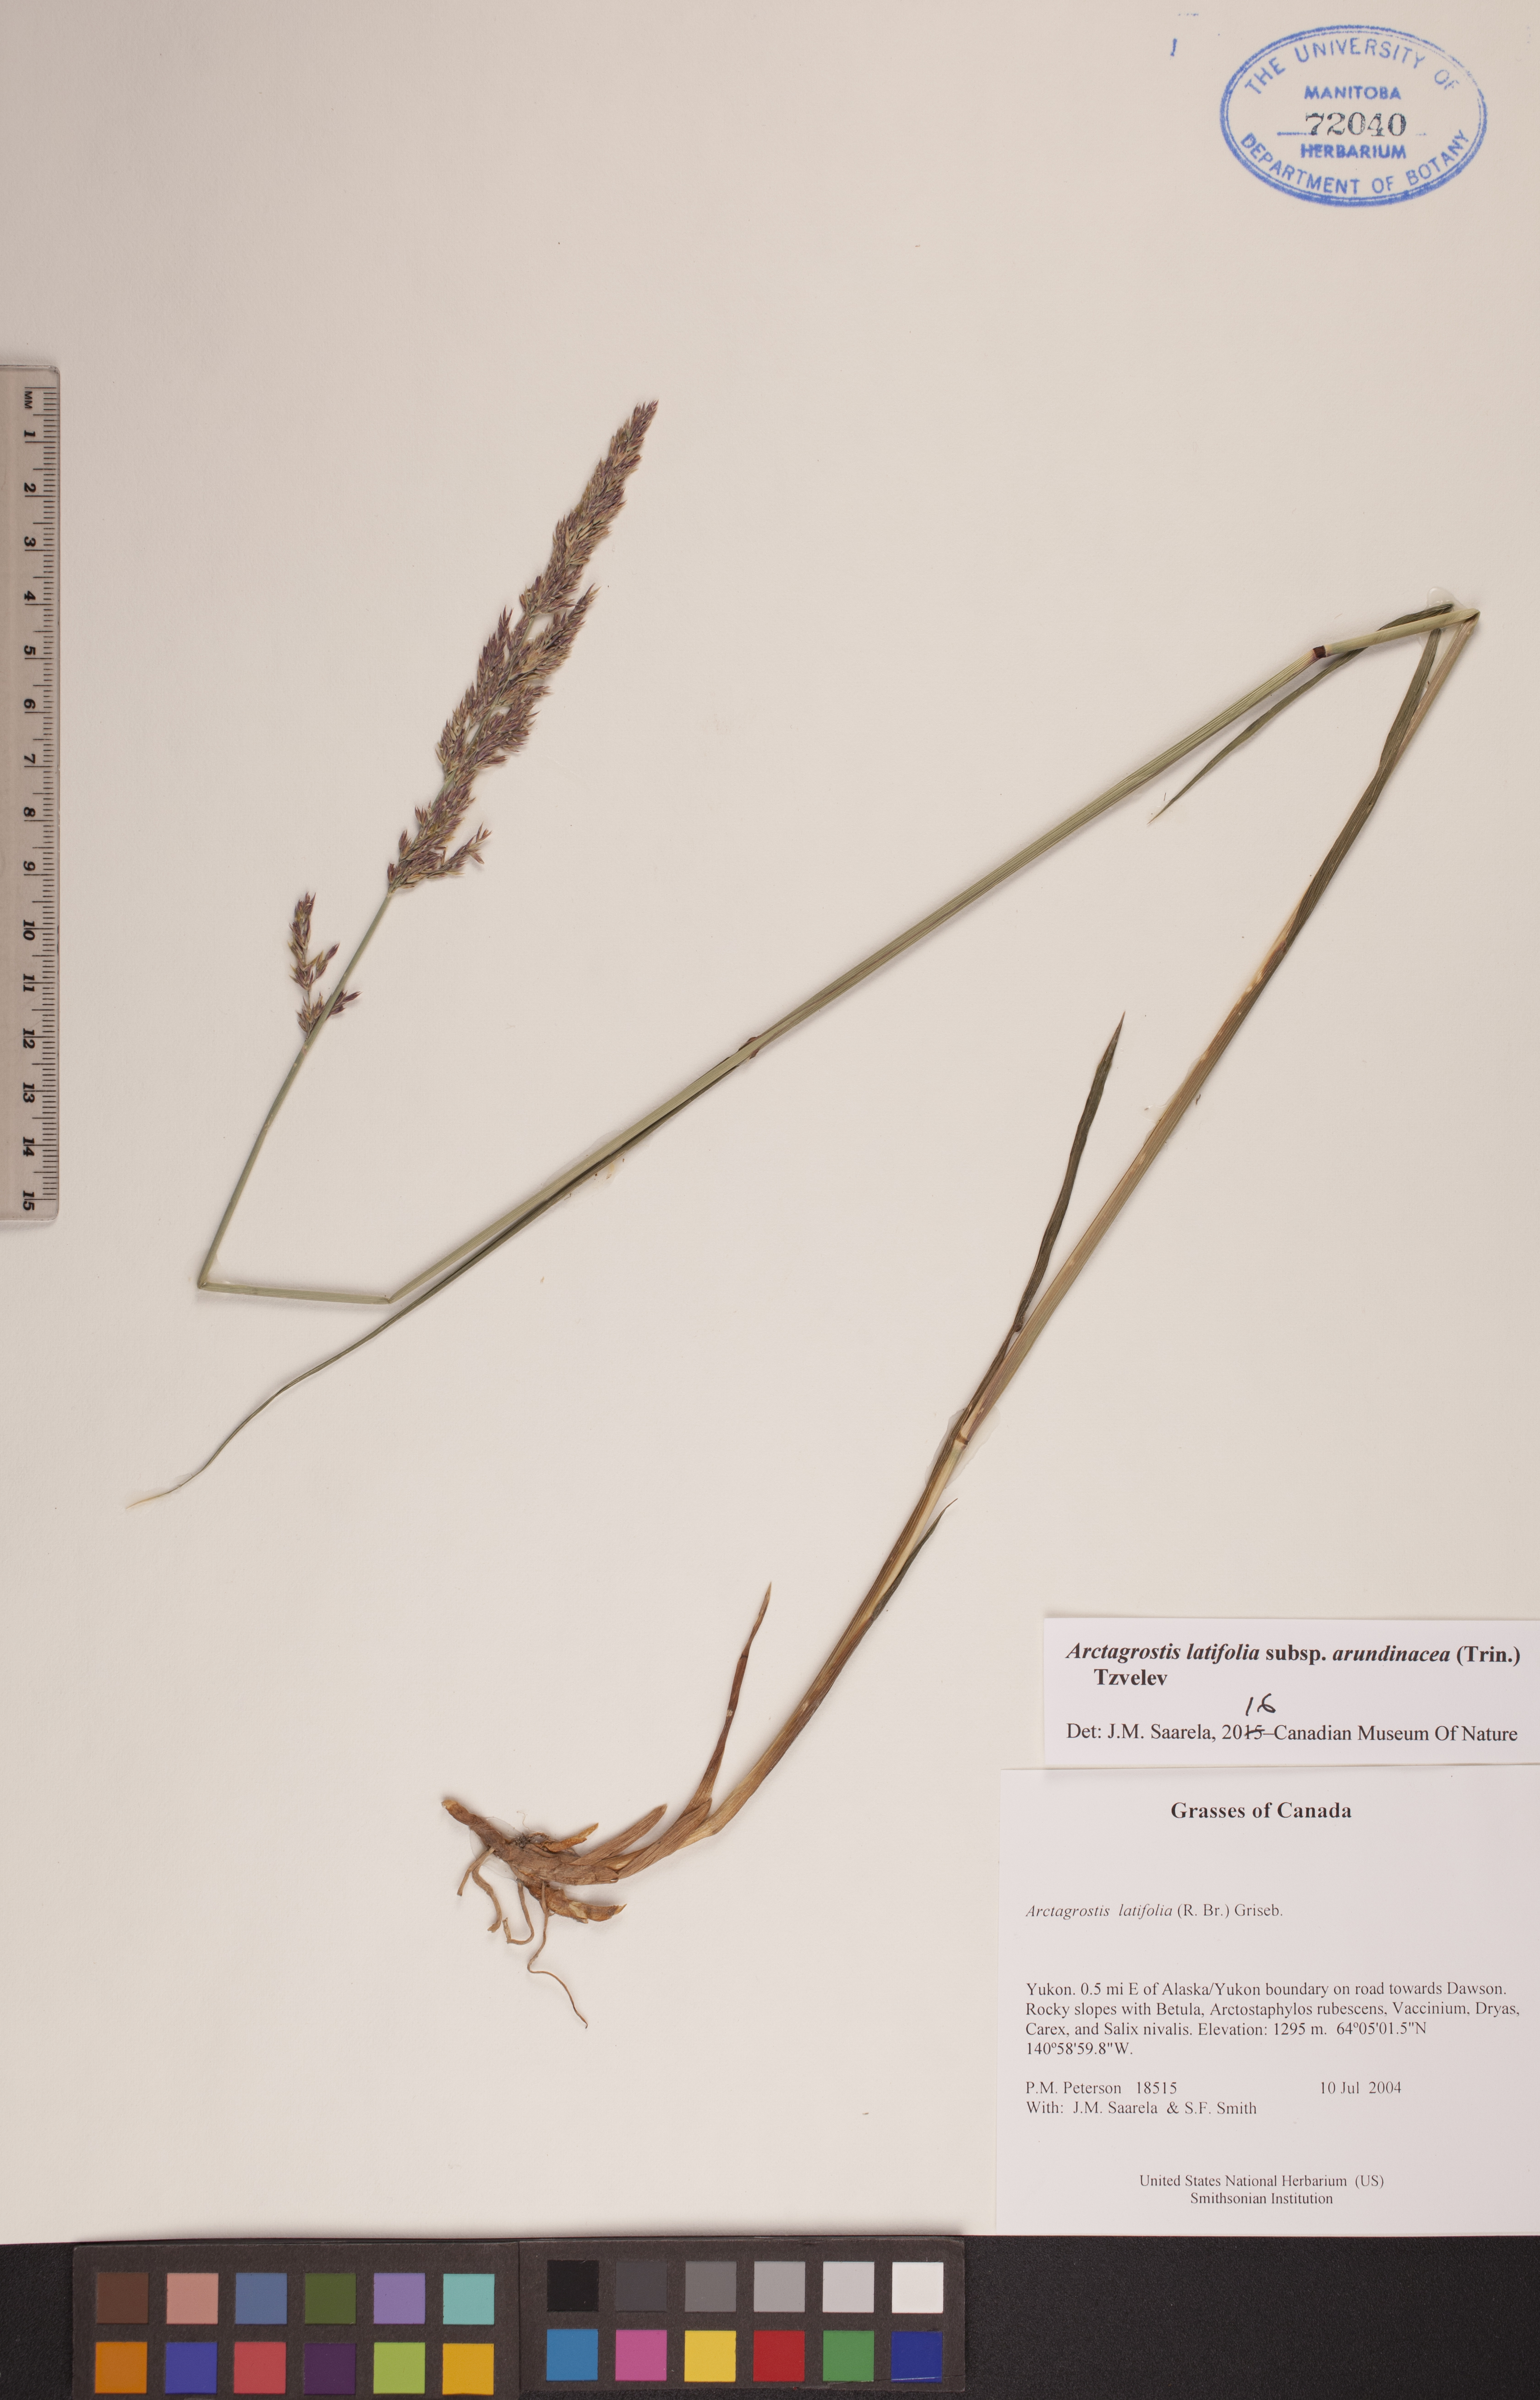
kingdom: Plantae
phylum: Tracheophyta
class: Liliopsida
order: Poales
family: Poaceae
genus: Arctagrostis
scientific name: Arctagrostis arundinacea
